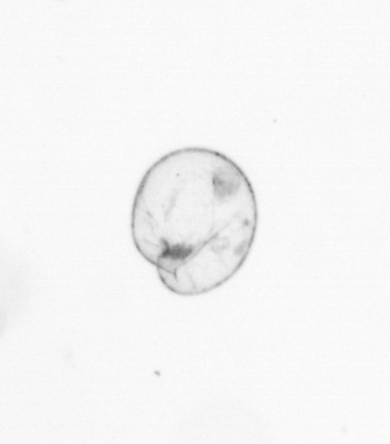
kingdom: Chromista
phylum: Myzozoa
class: Dinophyceae
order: Noctilucales
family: Noctilucaceae
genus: Noctiluca
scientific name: Noctiluca scintillans
